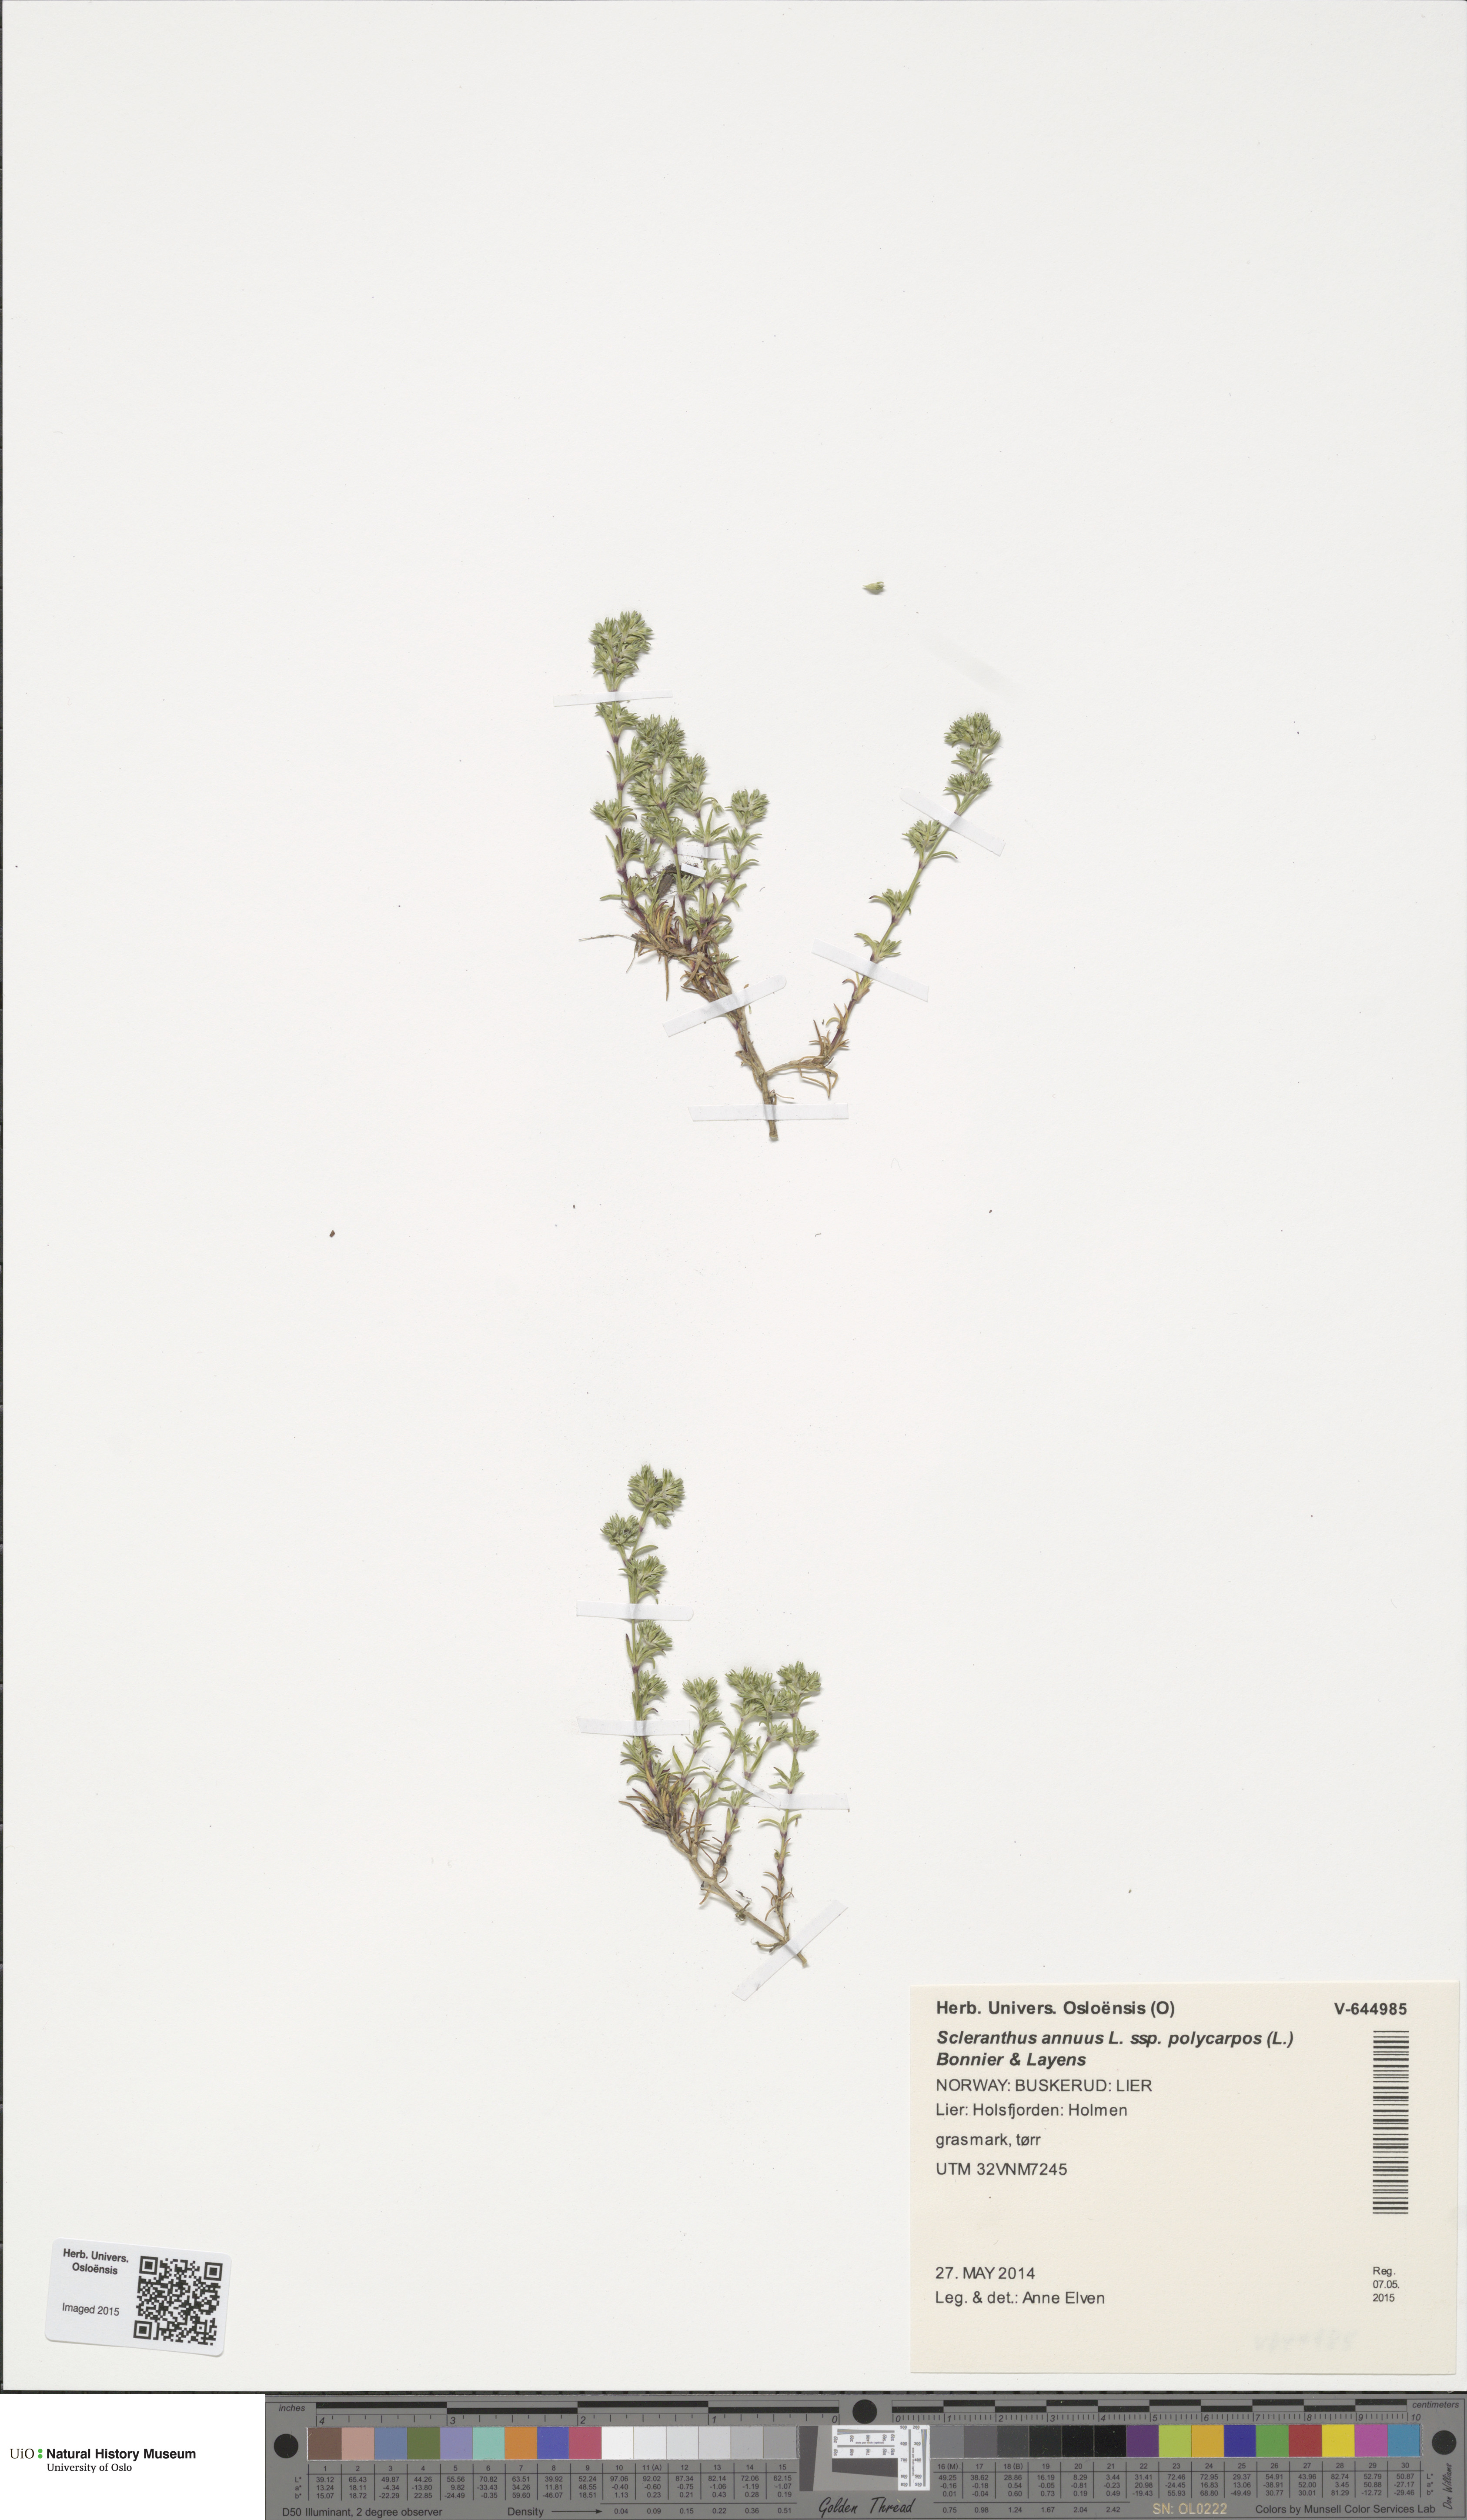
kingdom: Plantae
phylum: Tracheophyta
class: Magnoliopsida
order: Caryophyllales
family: Caryophyllaceae
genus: Scleranthus
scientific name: Scleranthus annuus
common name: Annual knawel
